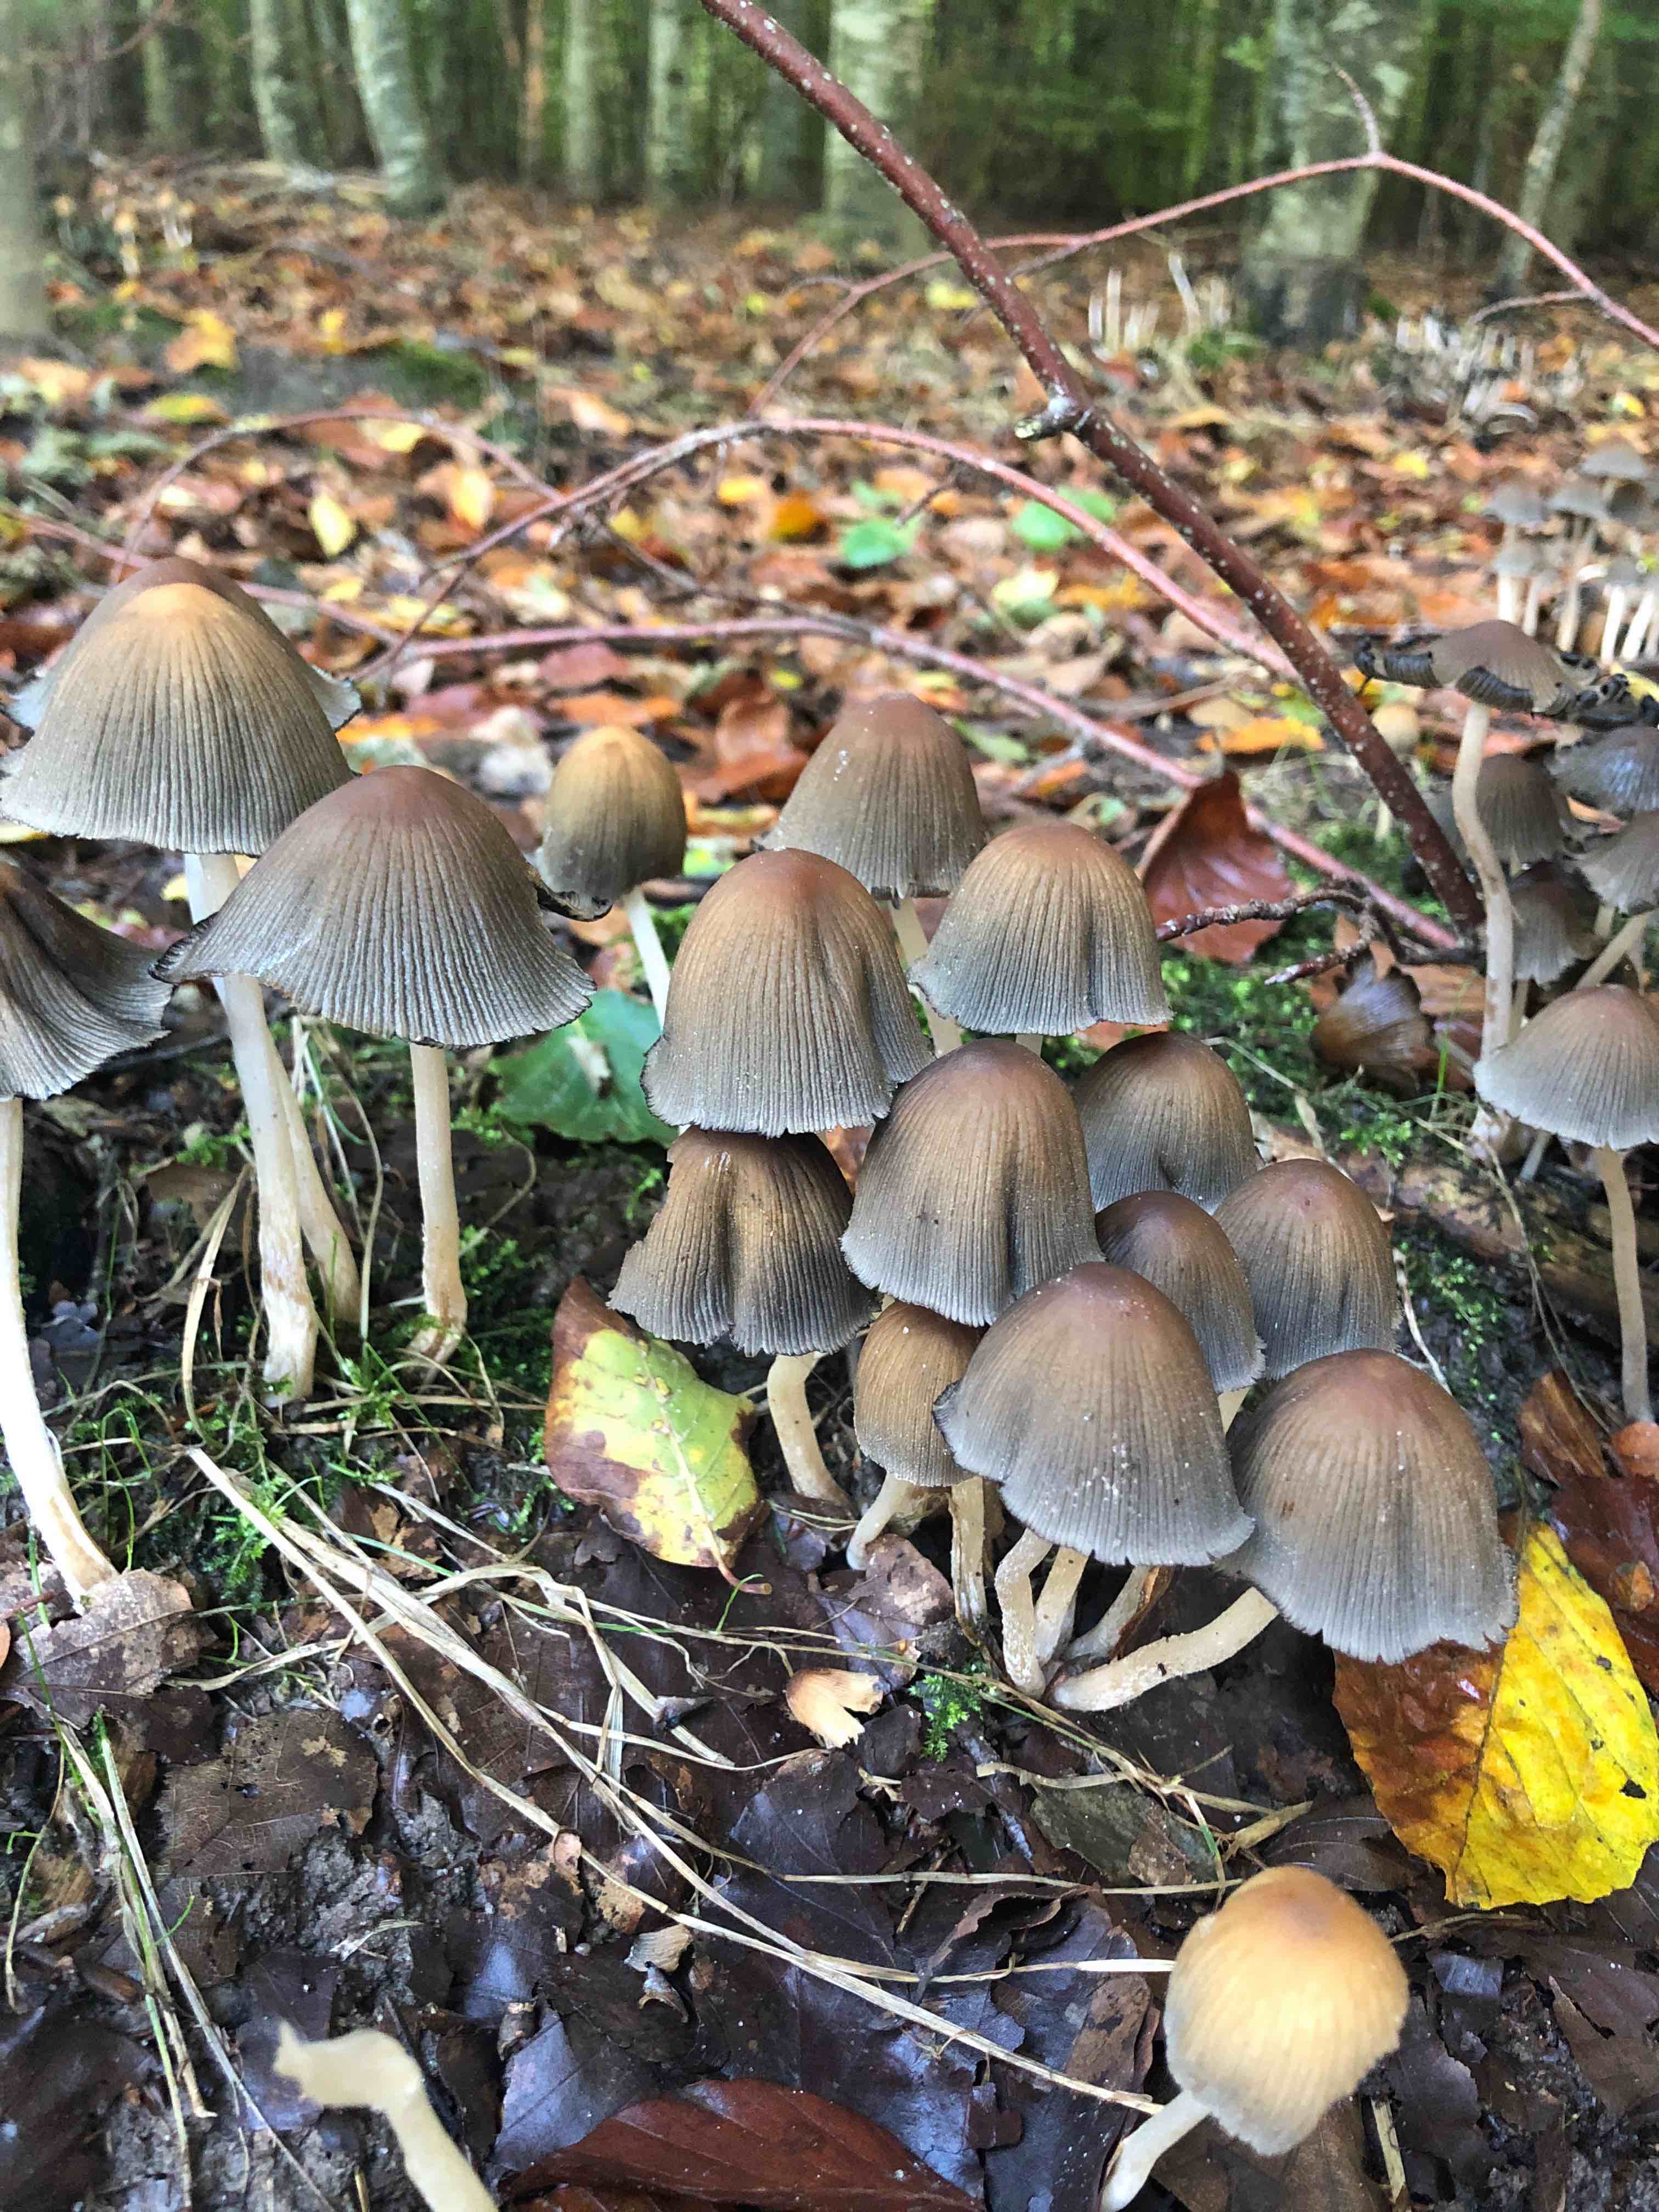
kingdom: Fungi
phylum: Basidiomycota
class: Agaricomycetes
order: Agaricales
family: Psathyrellaceae
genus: Coprinellus
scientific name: Coprinellus
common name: blækhat
